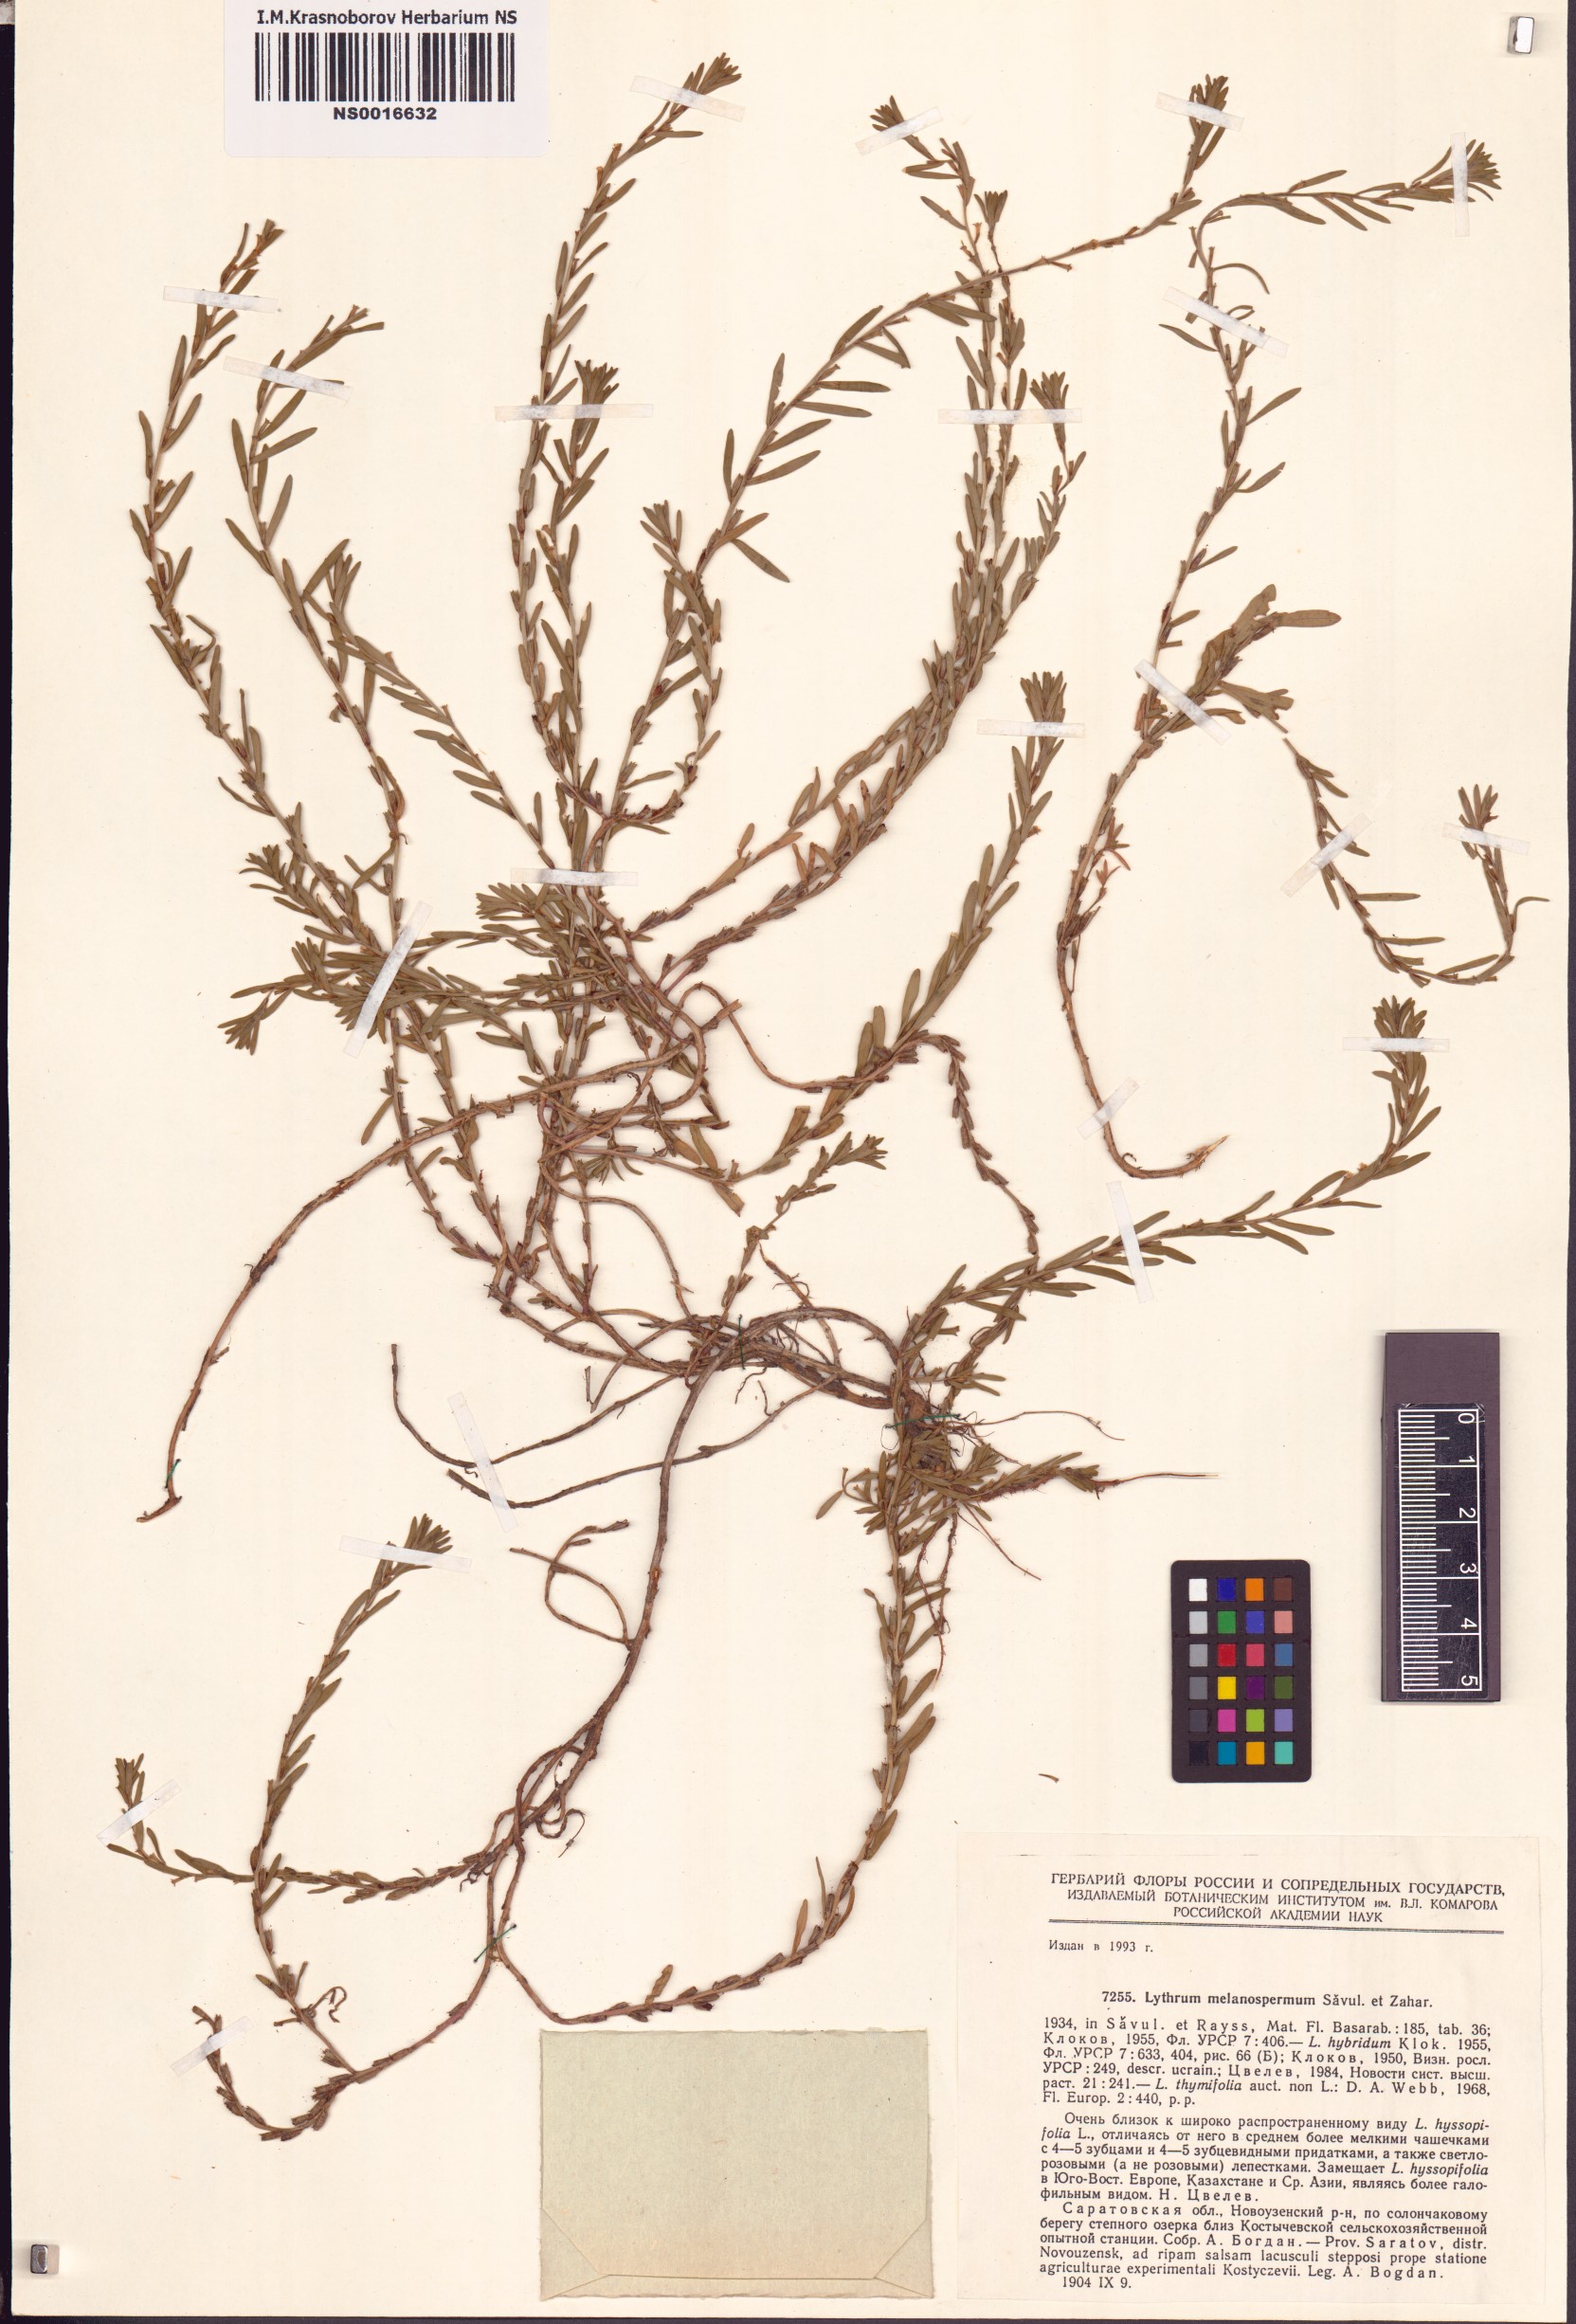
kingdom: Plantae
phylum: Tracheophyta
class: Magnoliopsida
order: Myrtales
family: Lythraceae
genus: Lythrum
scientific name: Lythrum thymifolia
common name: Thymeleaf loosestrife
